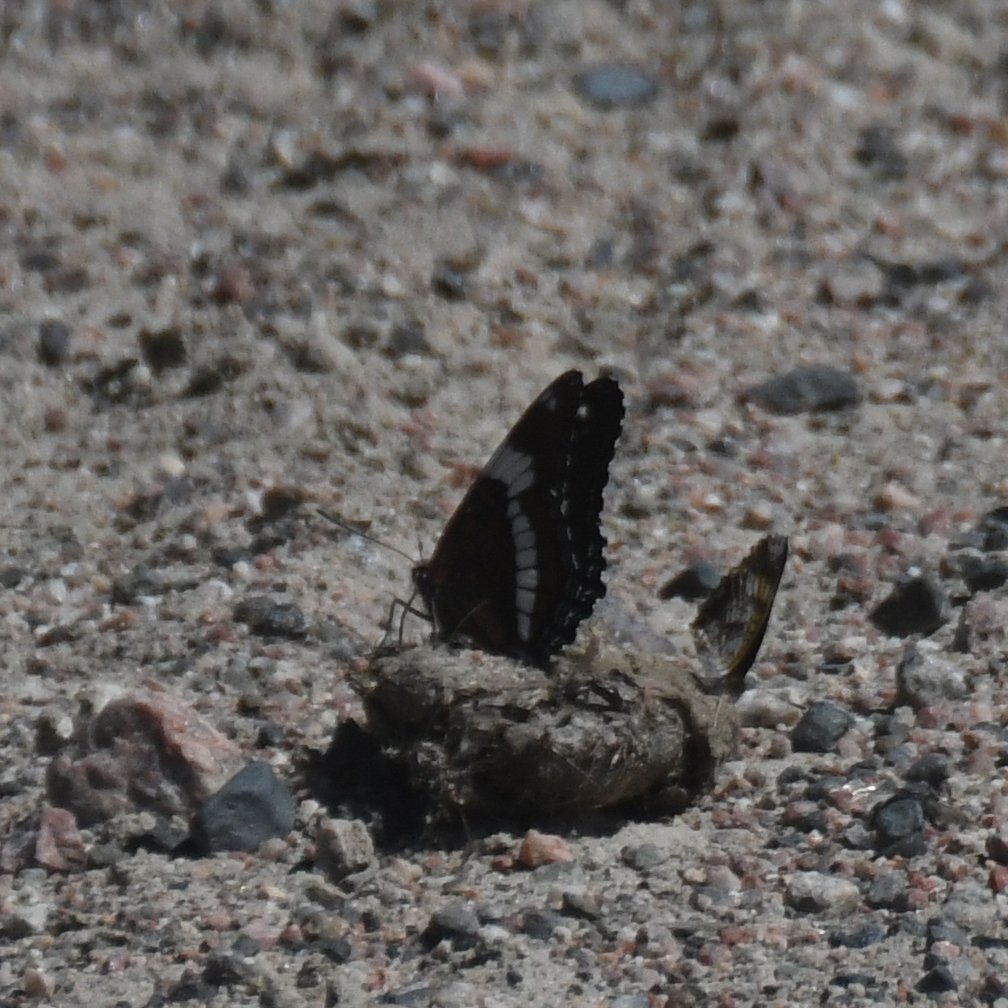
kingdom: Animalia
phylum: Arthropoda
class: Insecta
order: Lepidoptera
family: Nymphalidae
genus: Limenitis
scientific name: Limenitis arthemis
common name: Red-spotted Admiral
